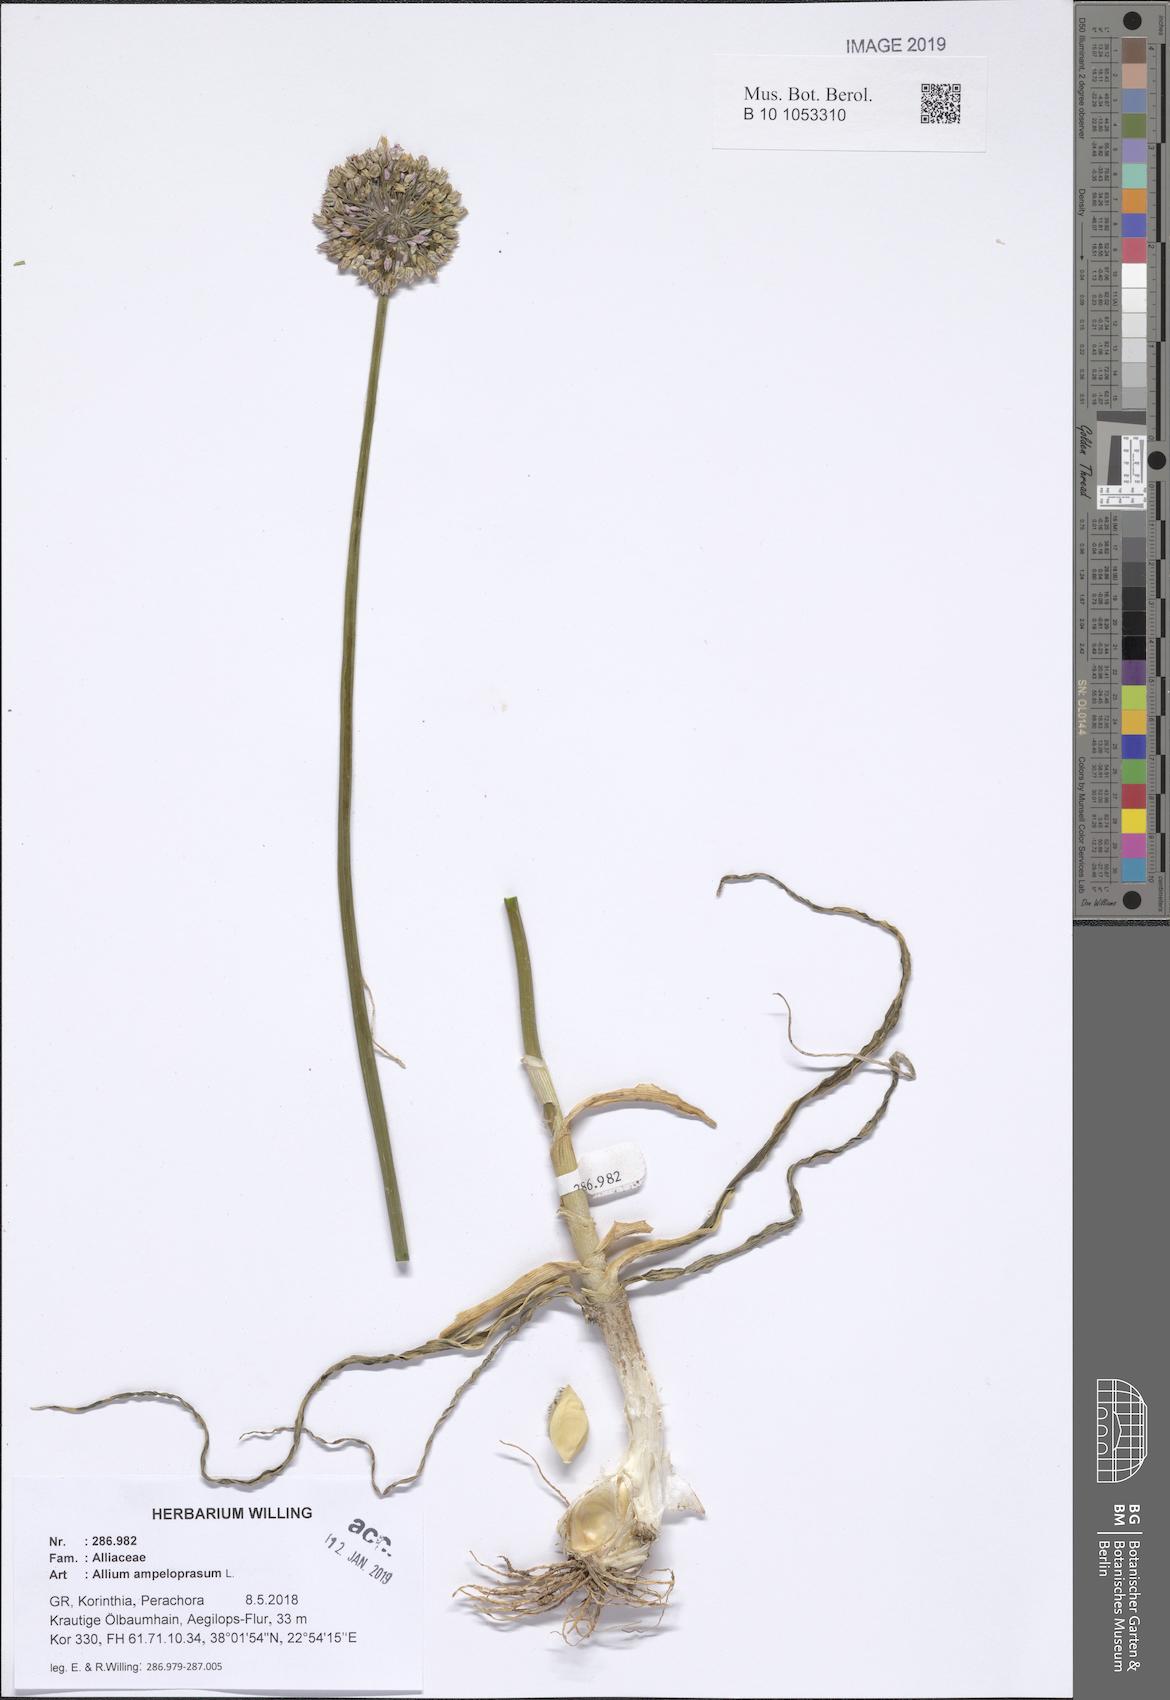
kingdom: Plantae
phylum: Tracheophyta
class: Liliopsida
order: Asparagales
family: Amaryllidaceae
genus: Allium
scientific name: Allium ampeloprasum
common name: Wild leek
